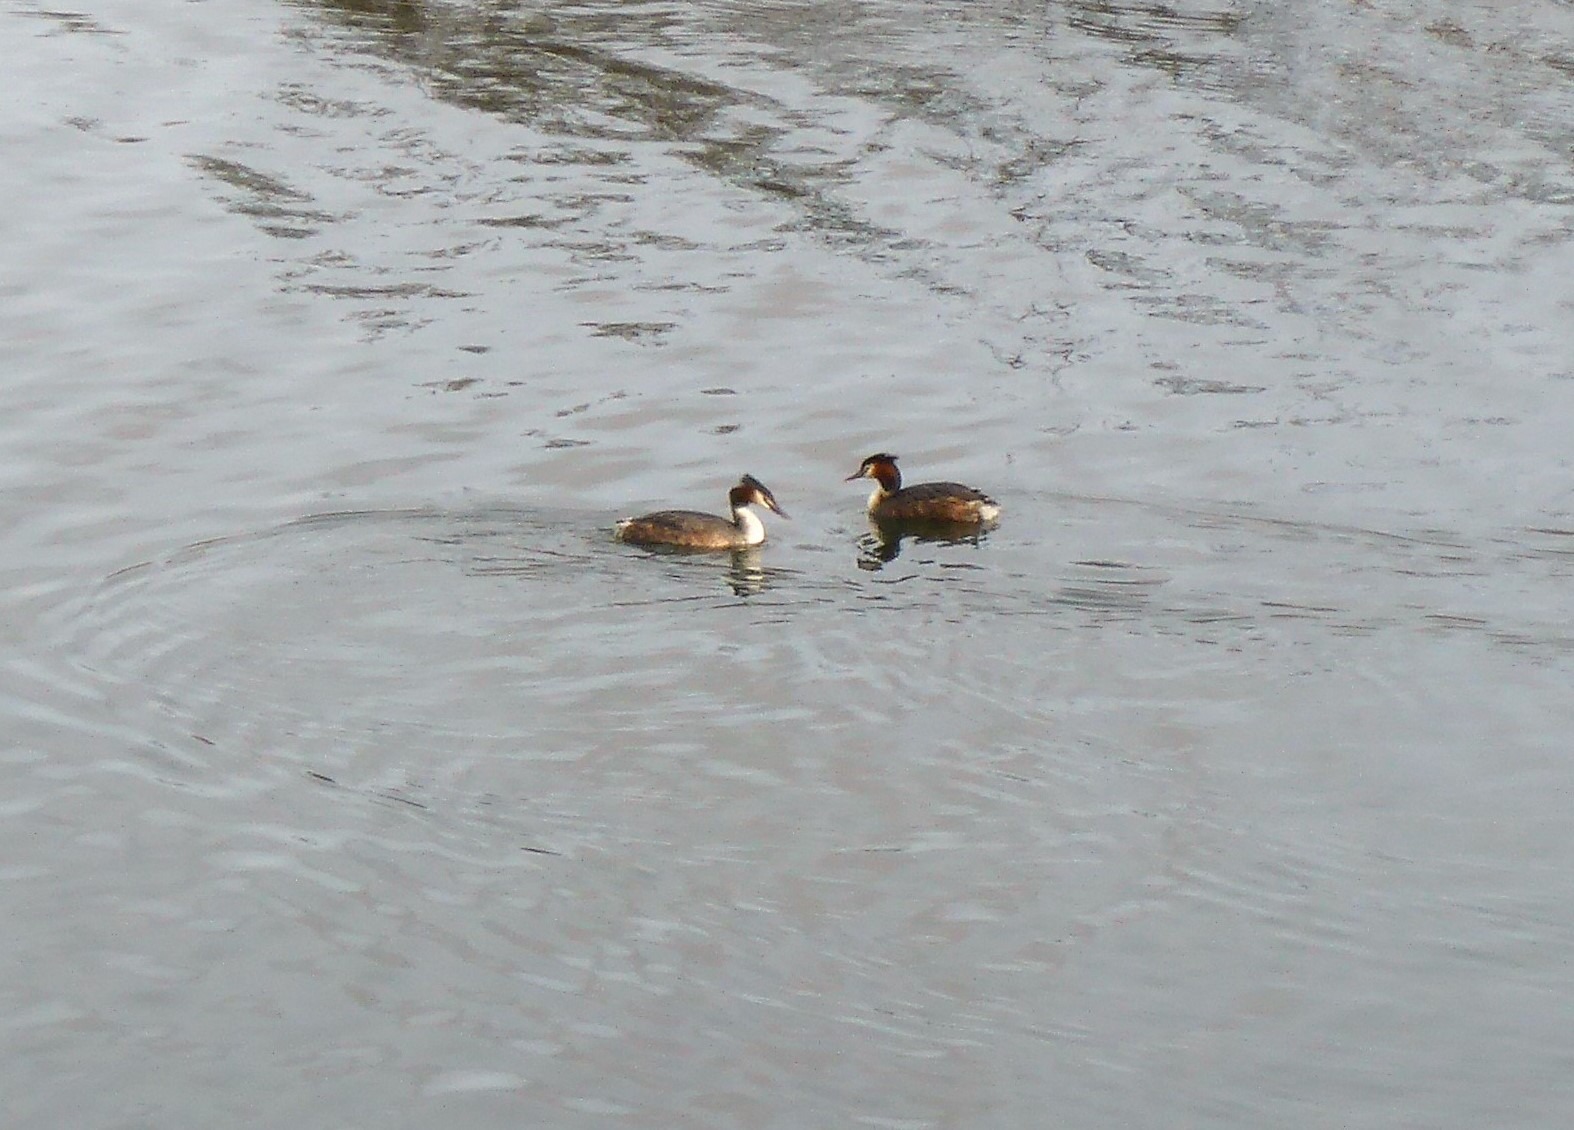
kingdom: Animalia
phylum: Chordata
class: Aves
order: Podicipediformes
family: Podicipedidae
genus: Podiceps
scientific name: Podiceps cristatus
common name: Toppet lappedykker
